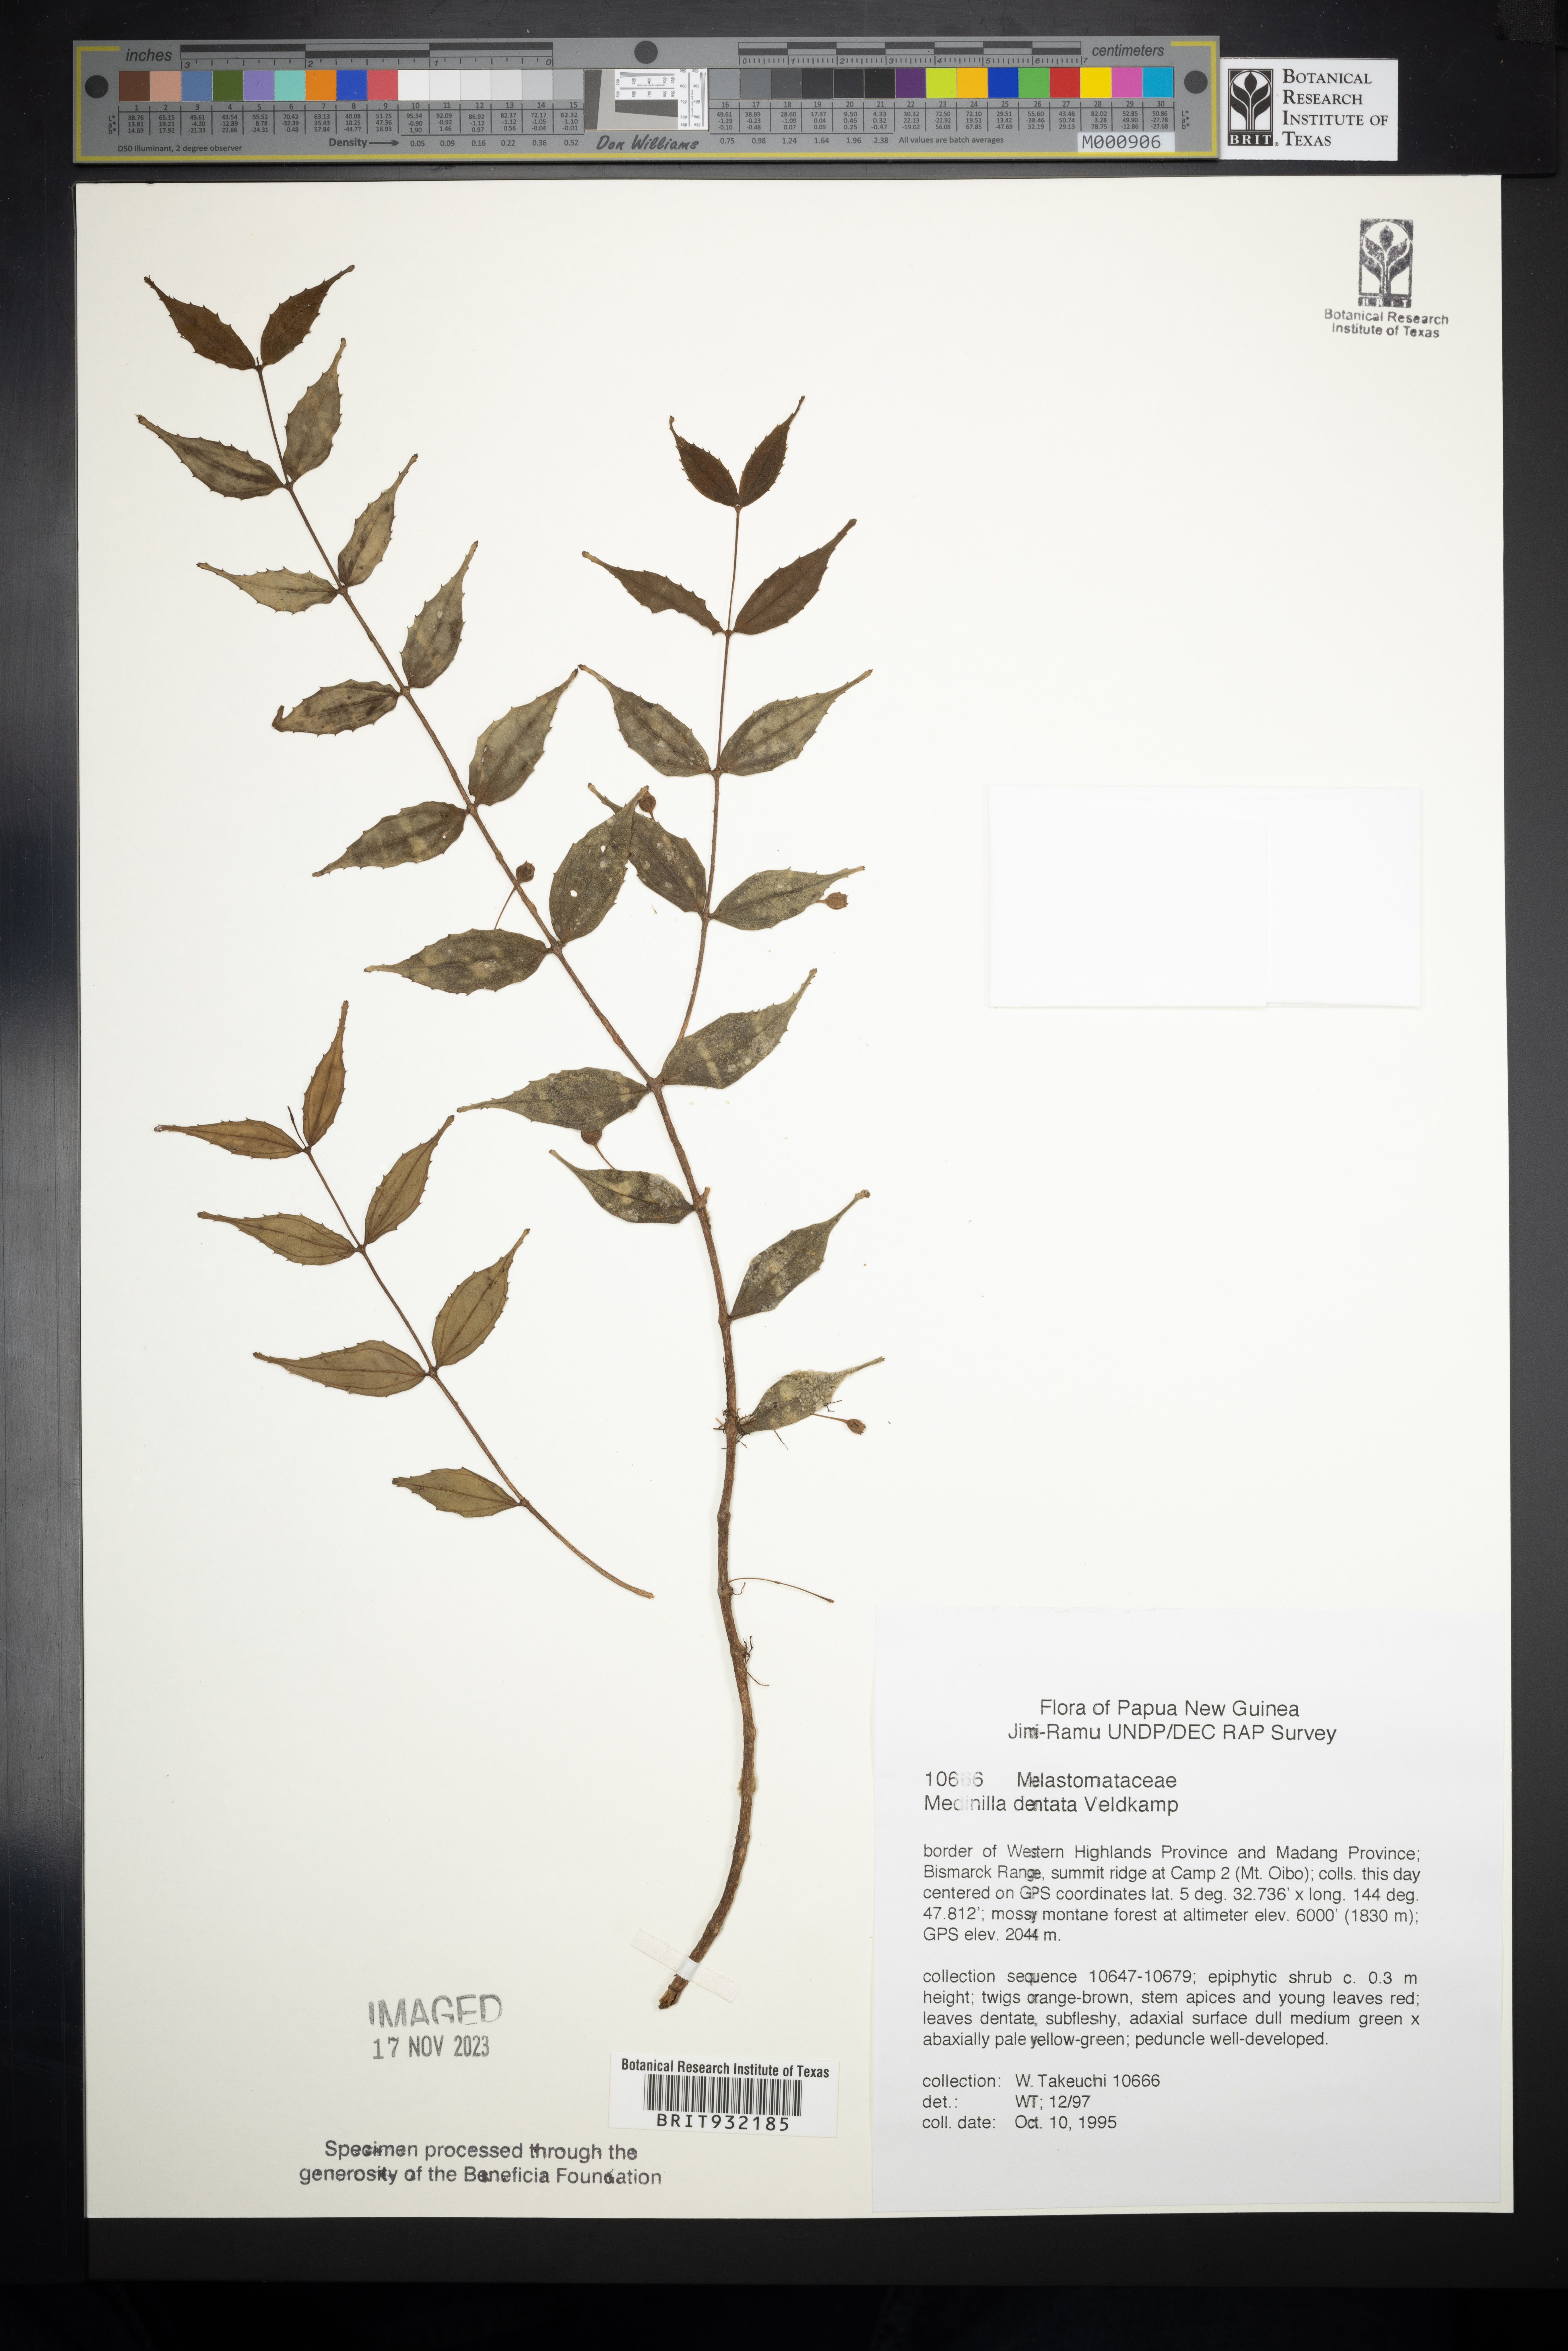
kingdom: Plantae
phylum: Tracheophyta
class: Magnoliopsida
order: Myrtales
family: Melastomataceae
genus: Medinilla
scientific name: Medinilla
